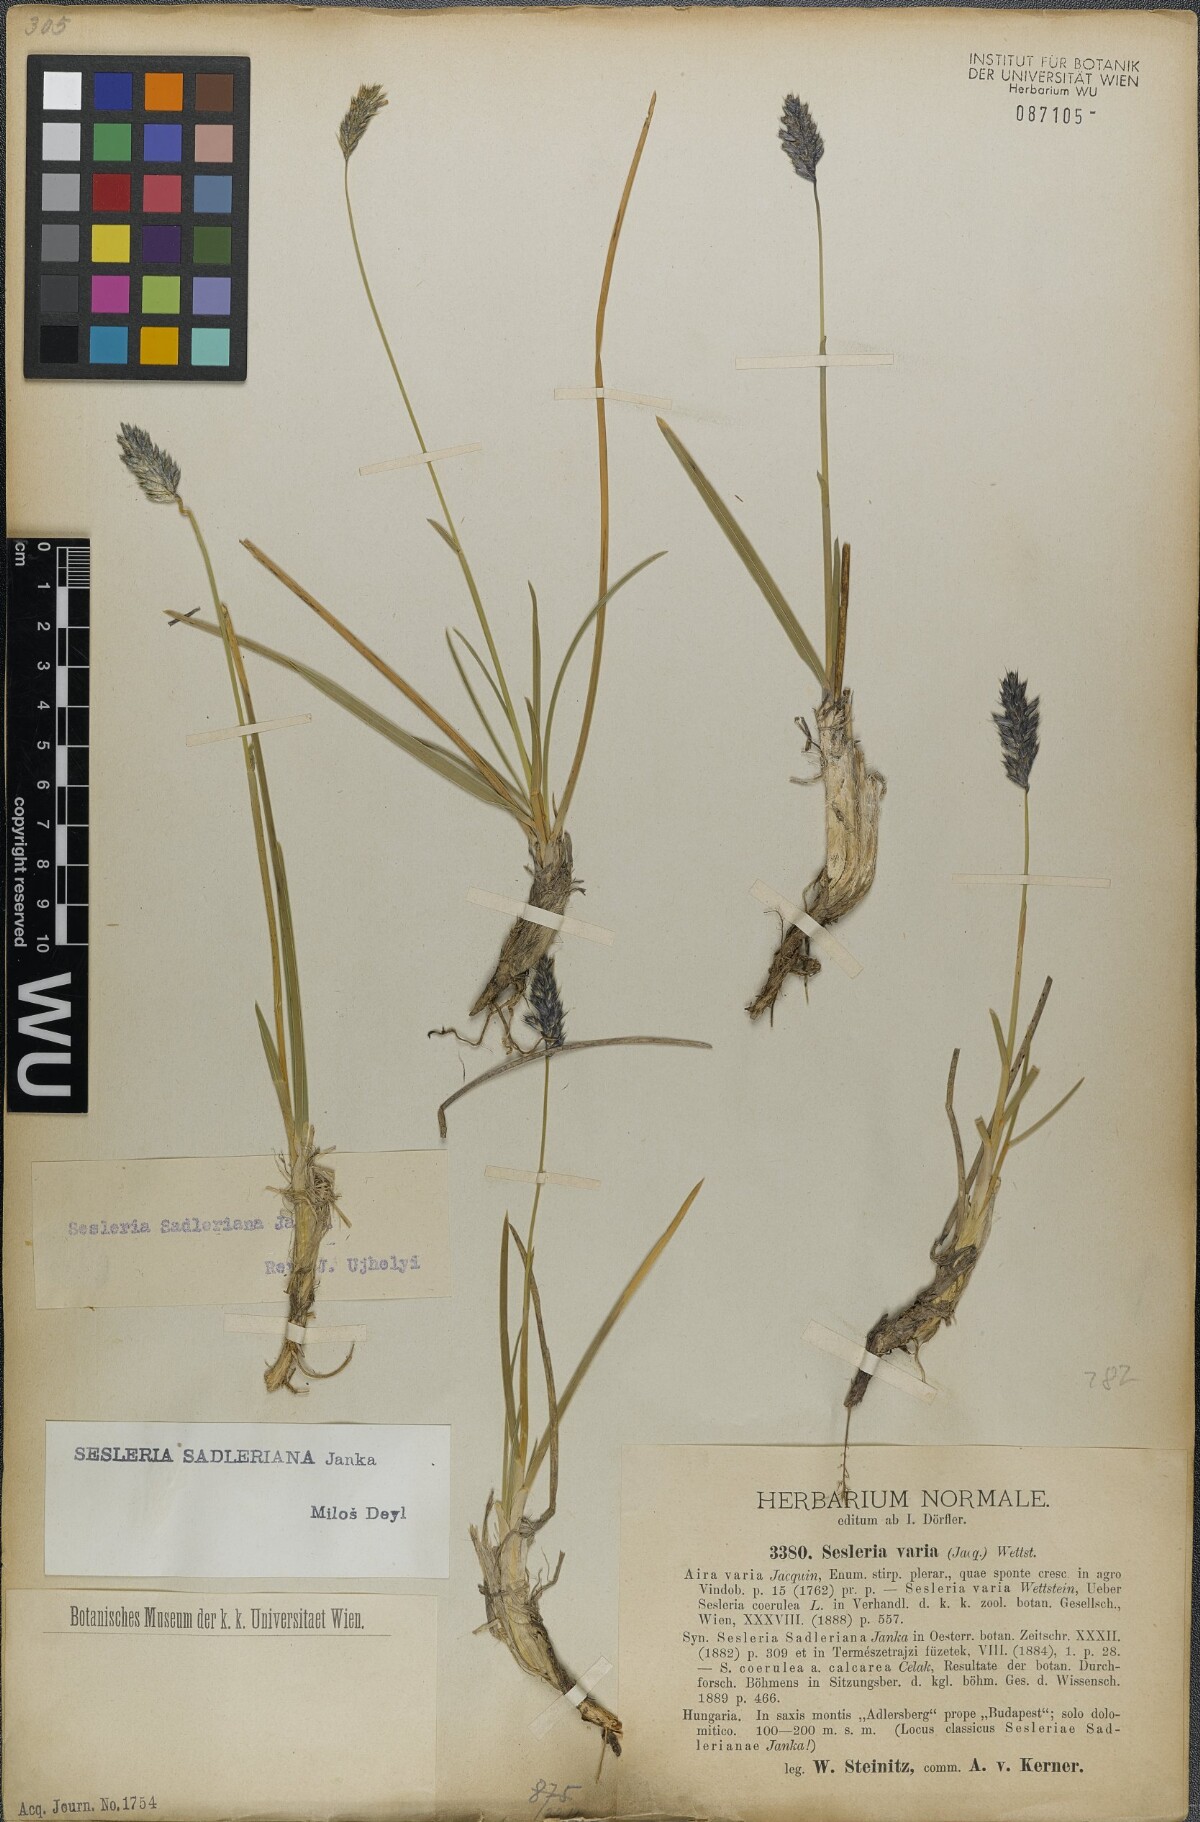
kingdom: Plantae
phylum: Tracheophyta
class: Liliopsida
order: Poales
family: Poaceae
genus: Sesleria
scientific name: Sesleria sadleriana
